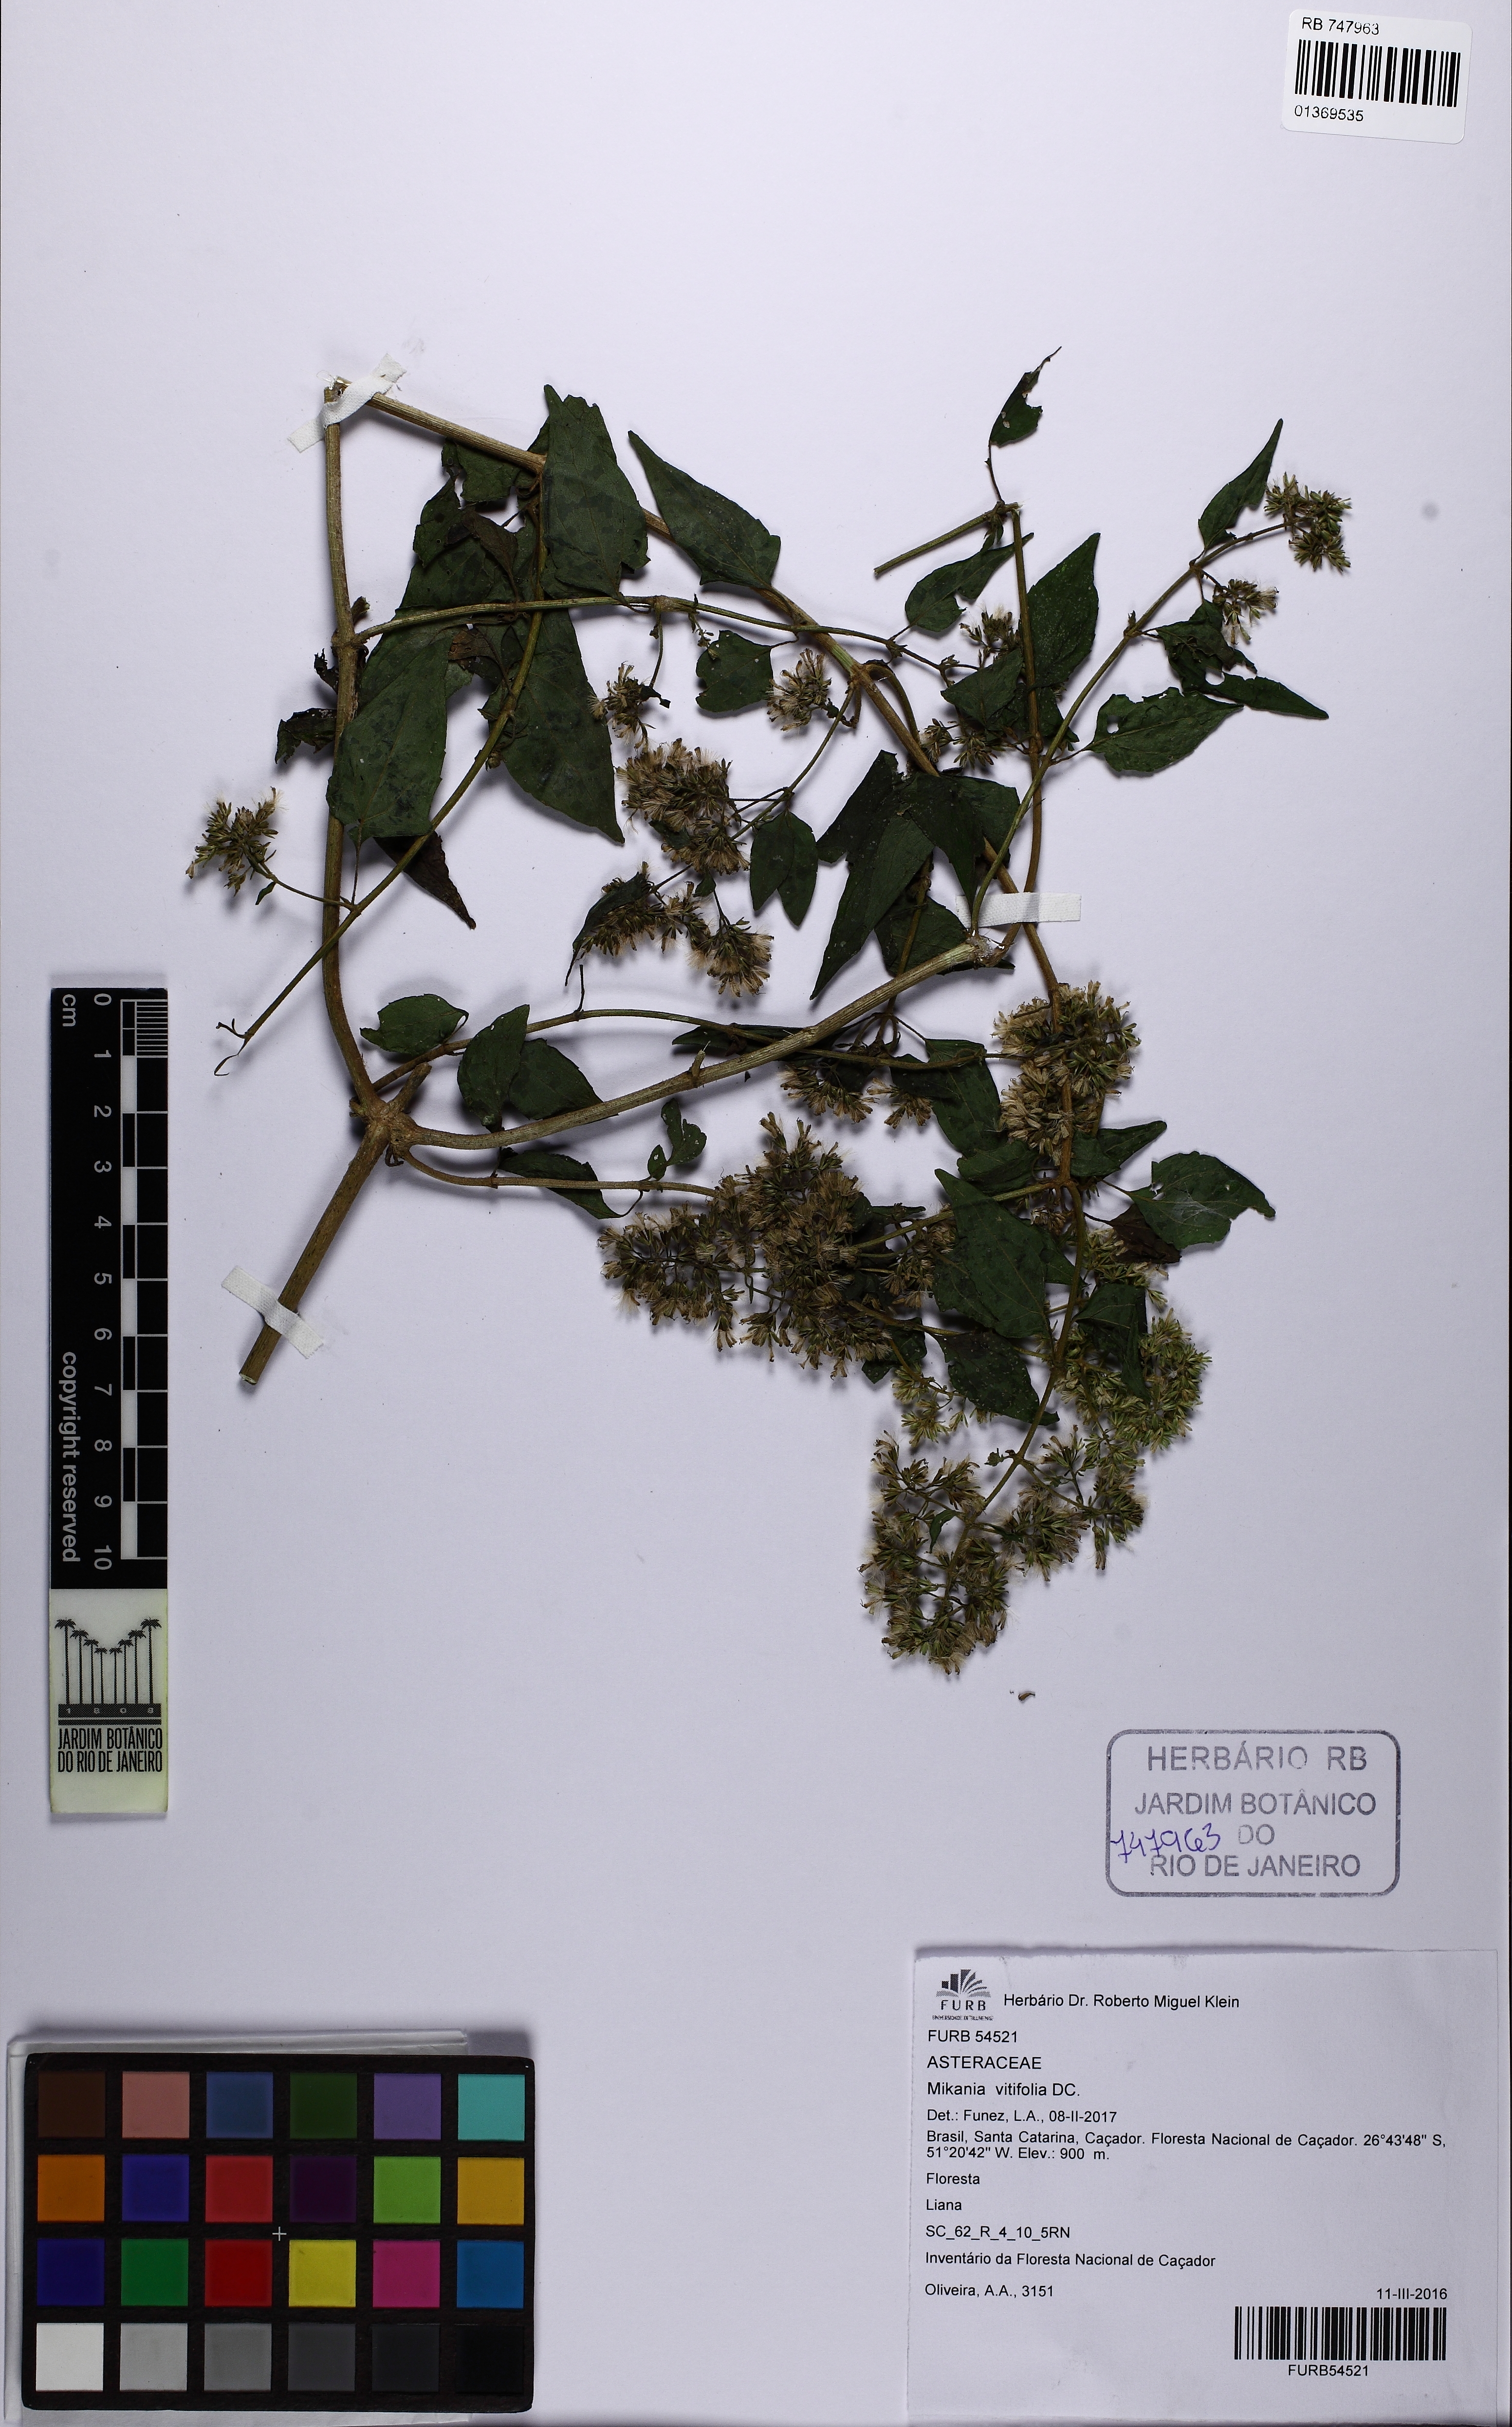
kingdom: Plantae
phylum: Tracheophyta
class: Magnoliopsida
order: Asterales
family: Asteraceae
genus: Mikania
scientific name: Mikania vitifolia
